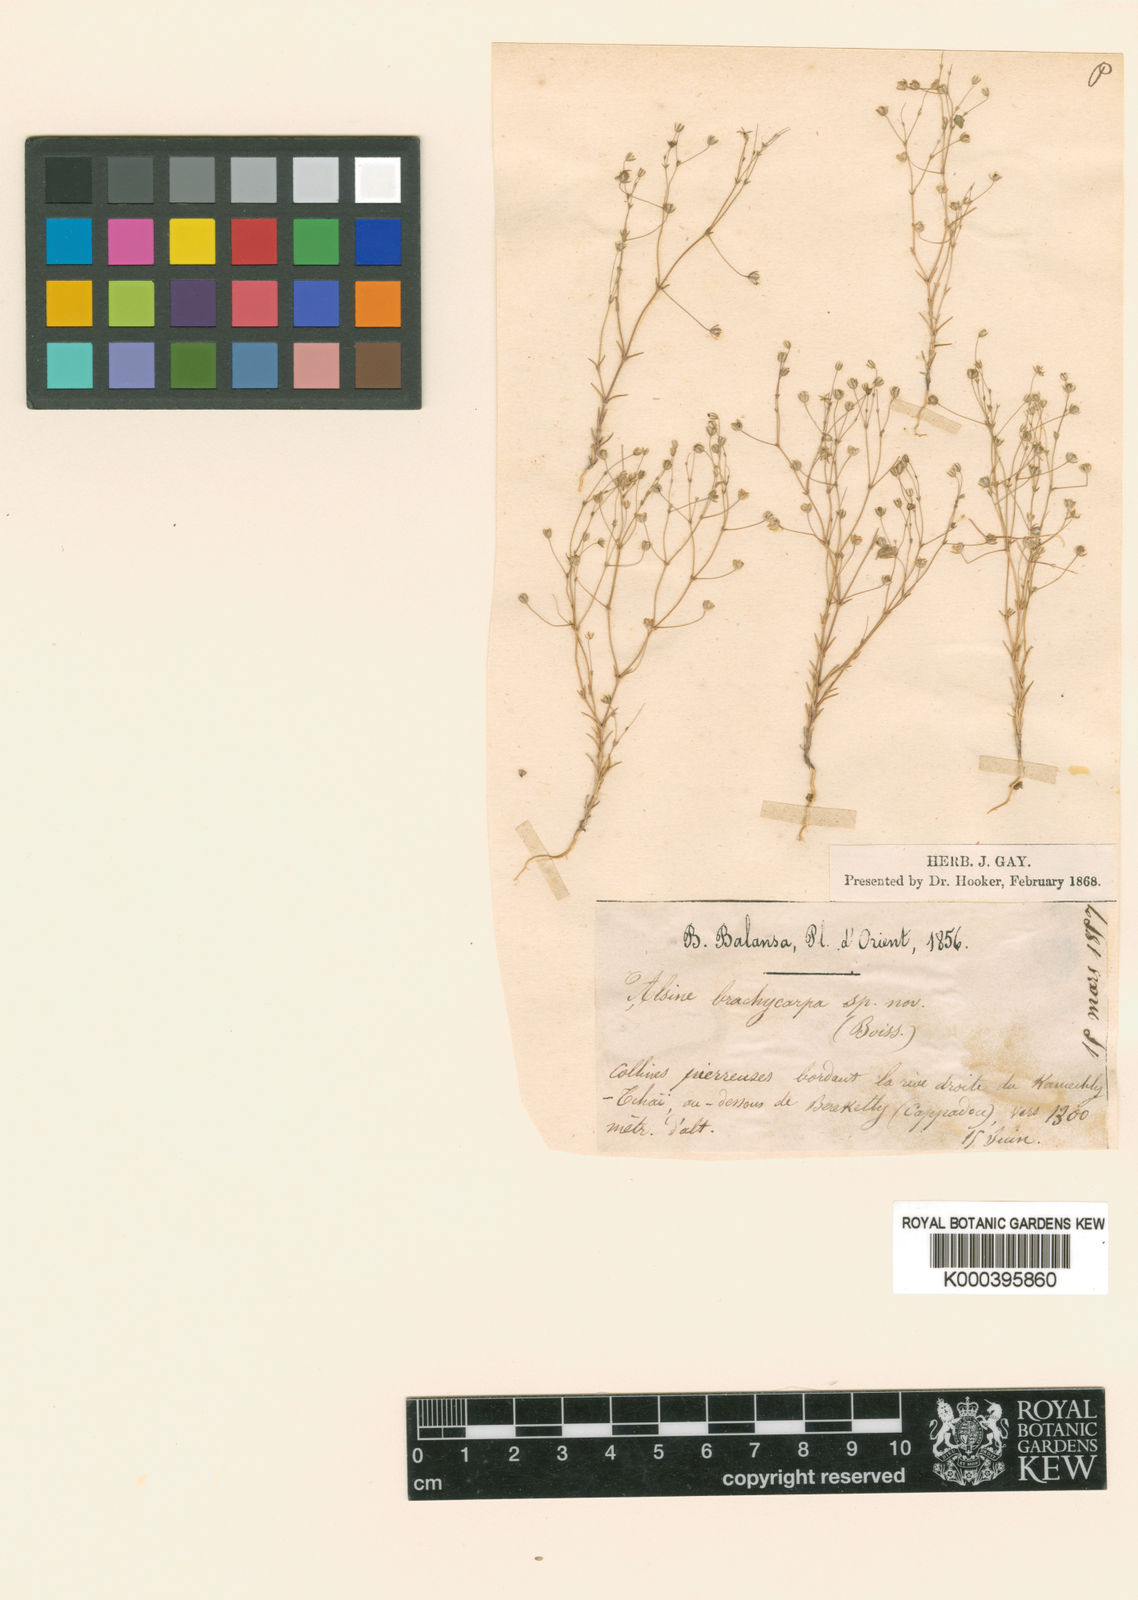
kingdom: Plantae
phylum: Tracheophyta
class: Magnoliopsida
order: Caryophyllales
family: Caryophyllaceae
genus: Sabulina
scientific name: Sabulina mesogitana
